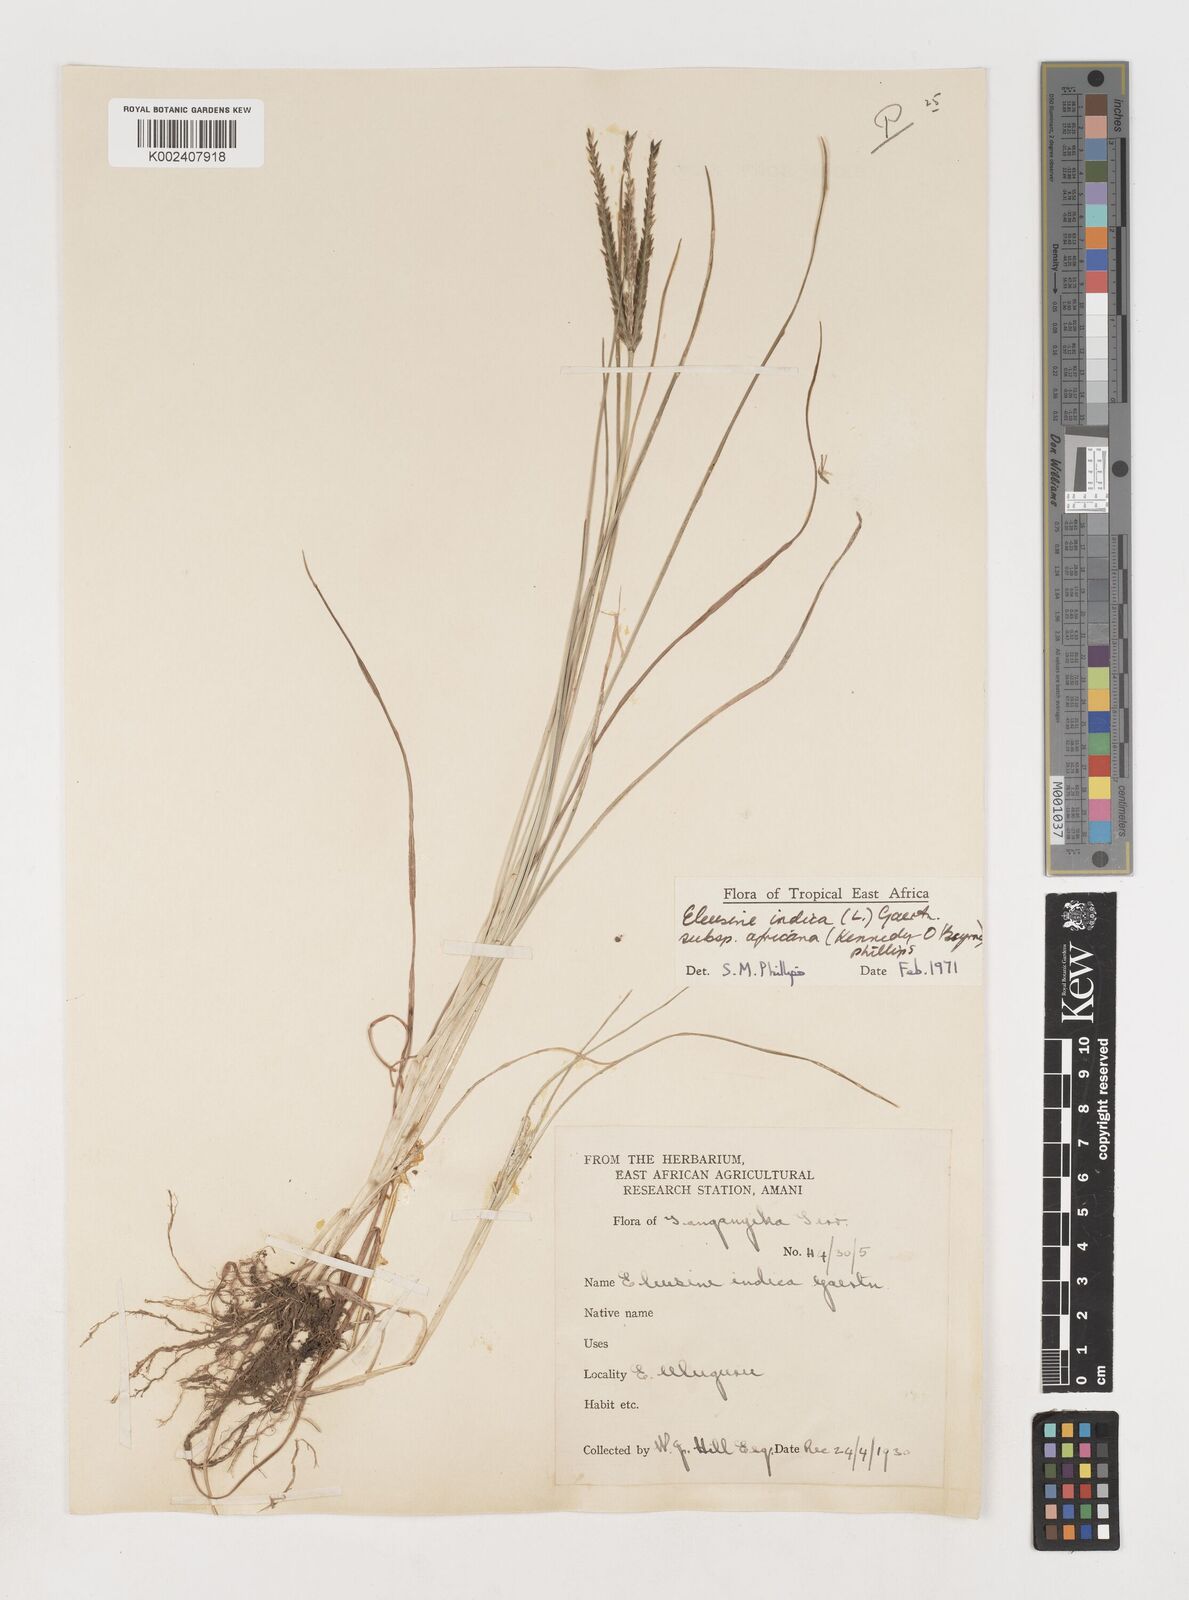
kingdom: Plantae
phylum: Tracheophyta
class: Liliopsida
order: Poales
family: Poaceae
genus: Eleusine
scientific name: Eleusine africana
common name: Wild african finger millet
